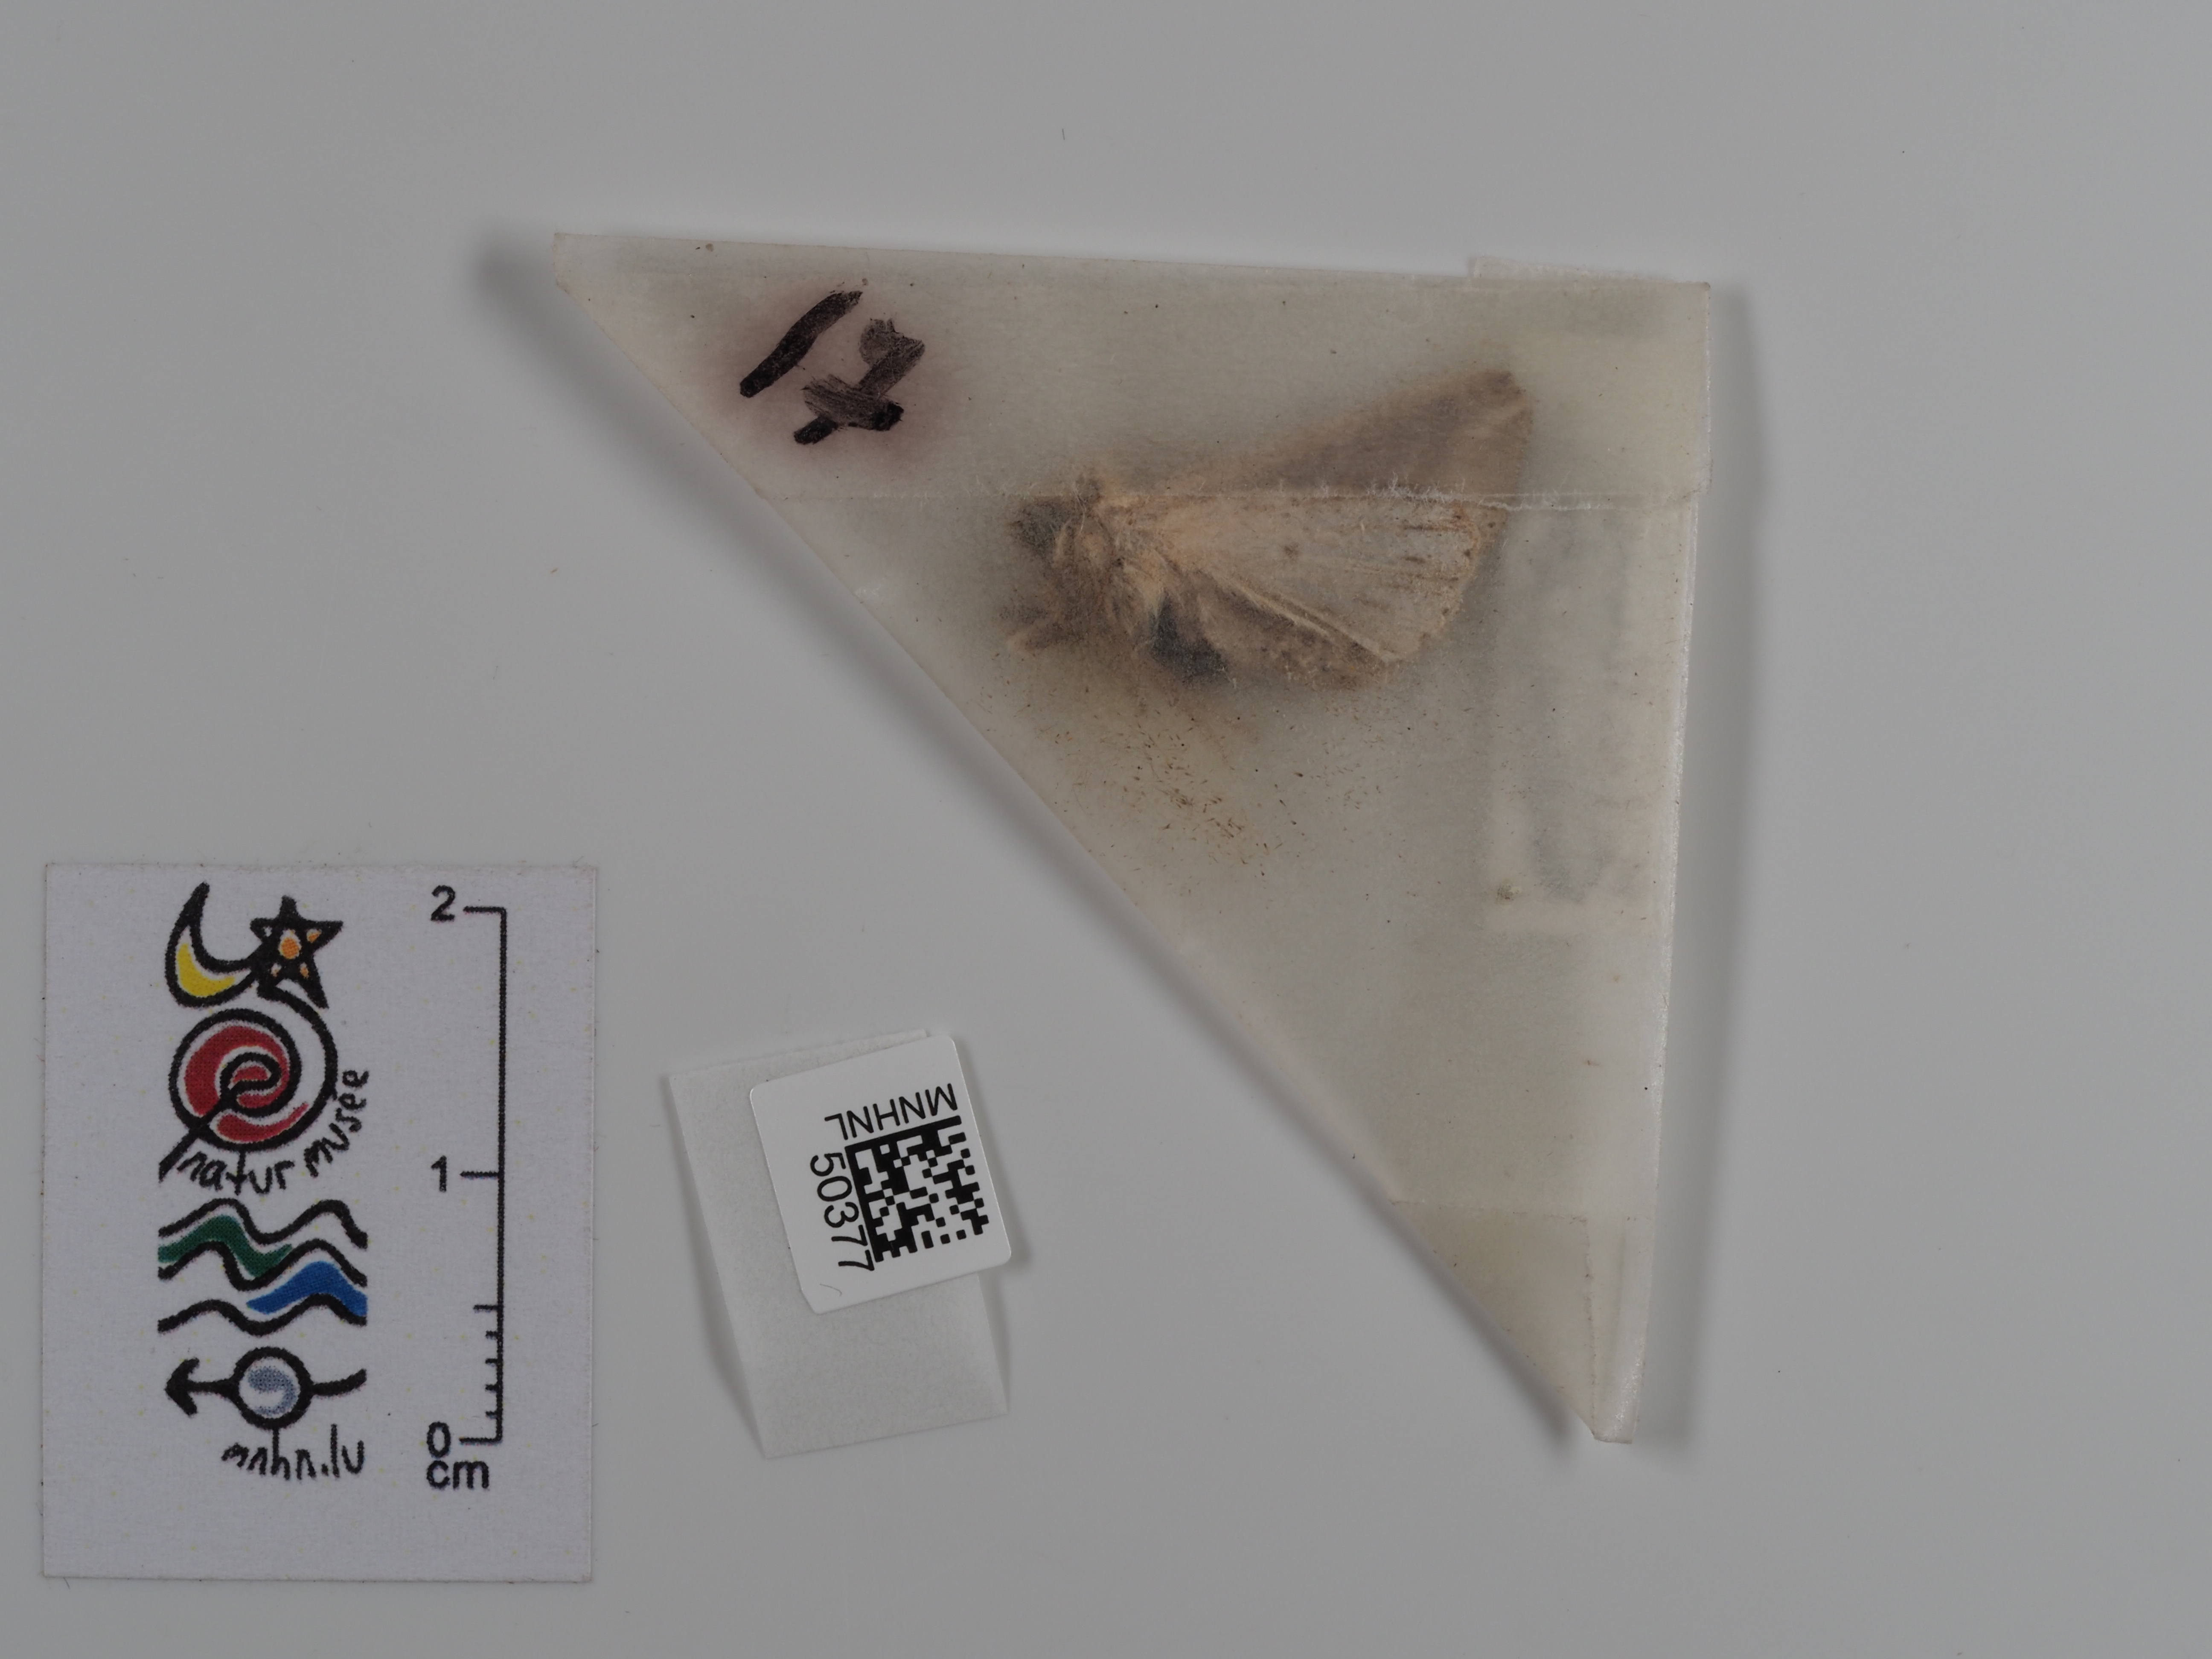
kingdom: Animalia
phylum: Arthropoda
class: Insecta
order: Lepidoptera
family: Noctuidae
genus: Mythimna
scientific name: Mythimna l-album
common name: L-album wainscot
